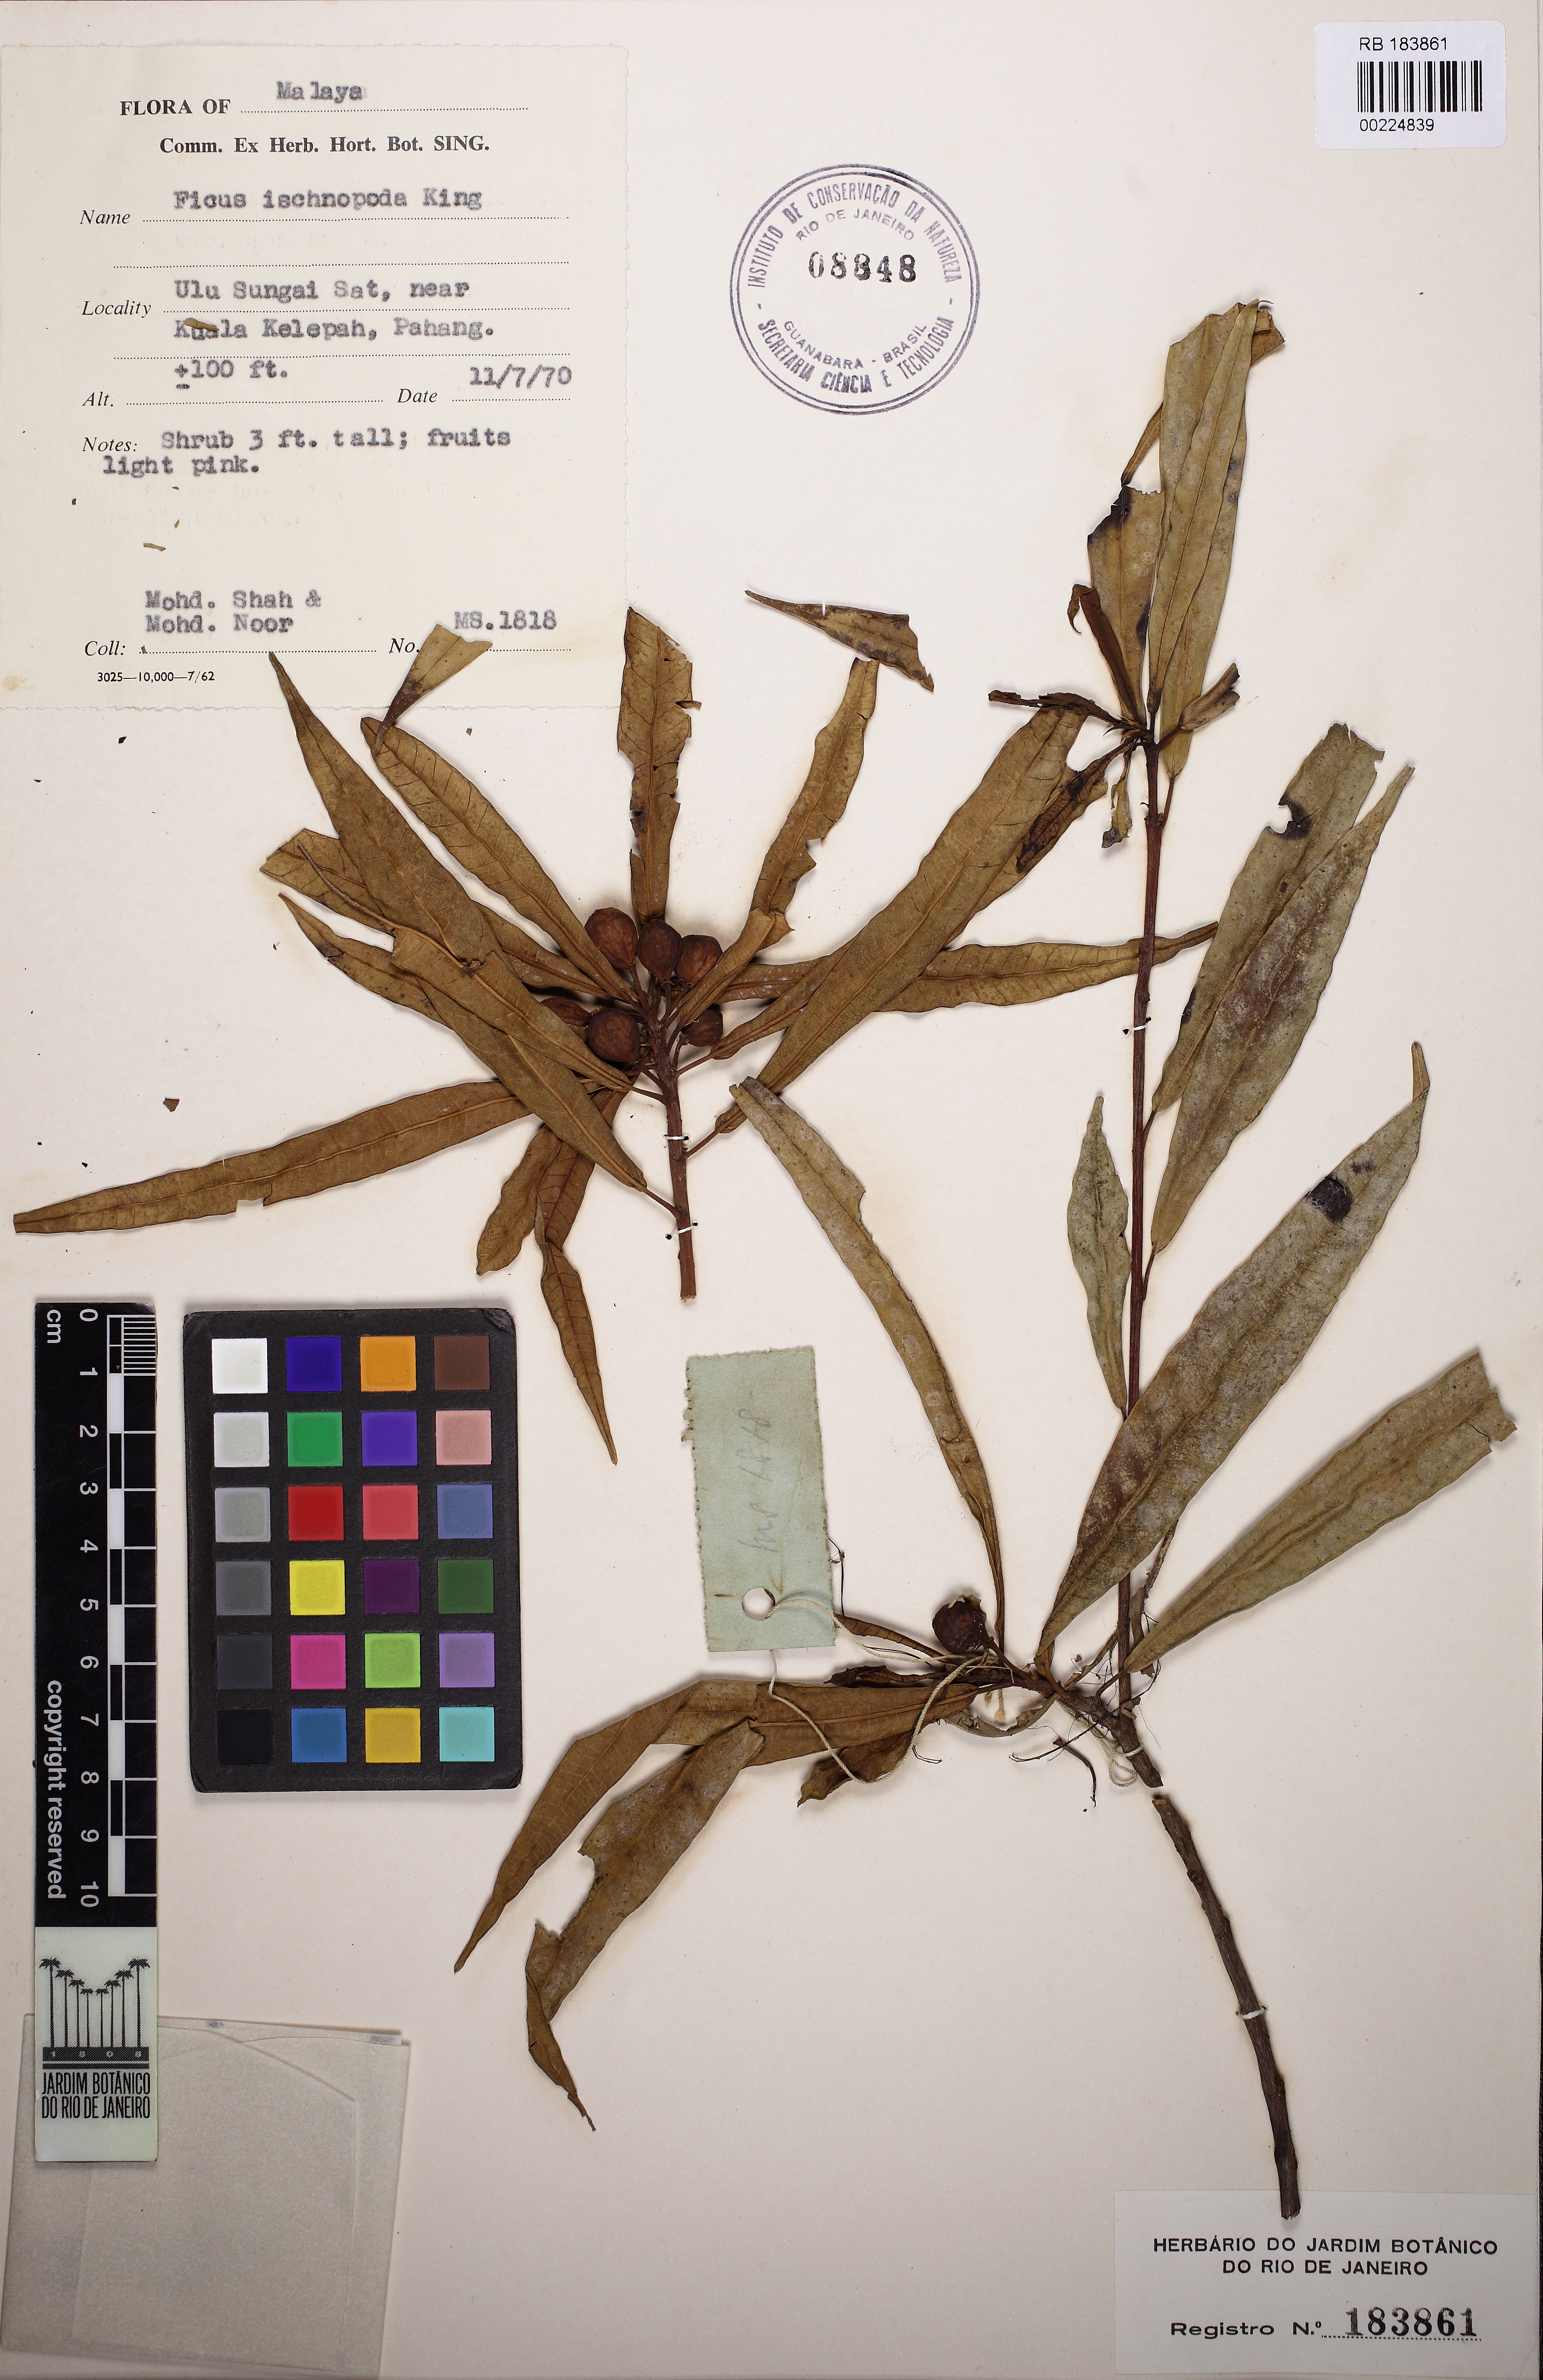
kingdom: Plantae
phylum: Tracheophyta
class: Magnoliopsida
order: Rosales
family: Moraceae
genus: Ficus
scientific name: Ficus ischnopoda
